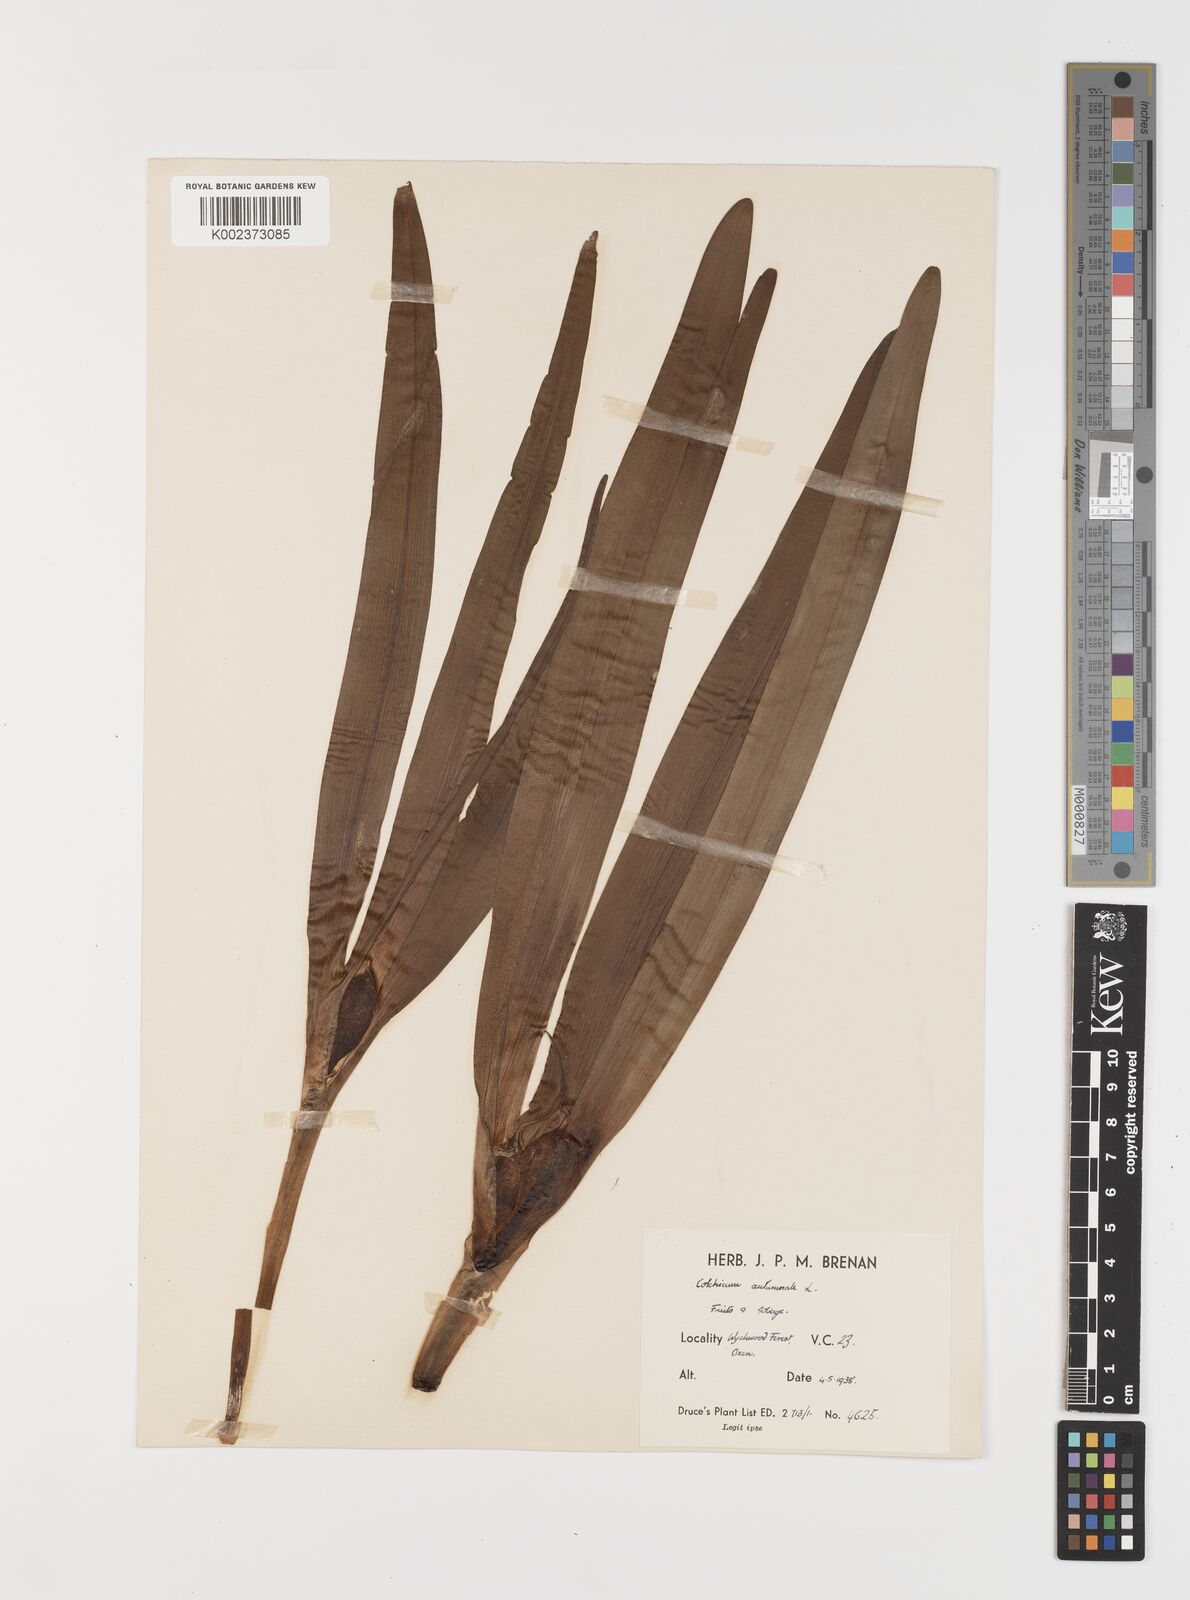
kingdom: Plantae
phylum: Tracheophyta
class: Liliopsida
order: Liliales
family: Colchicaceae
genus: Colchicum
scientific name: Colchicum autumnale
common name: Autumn crocus
